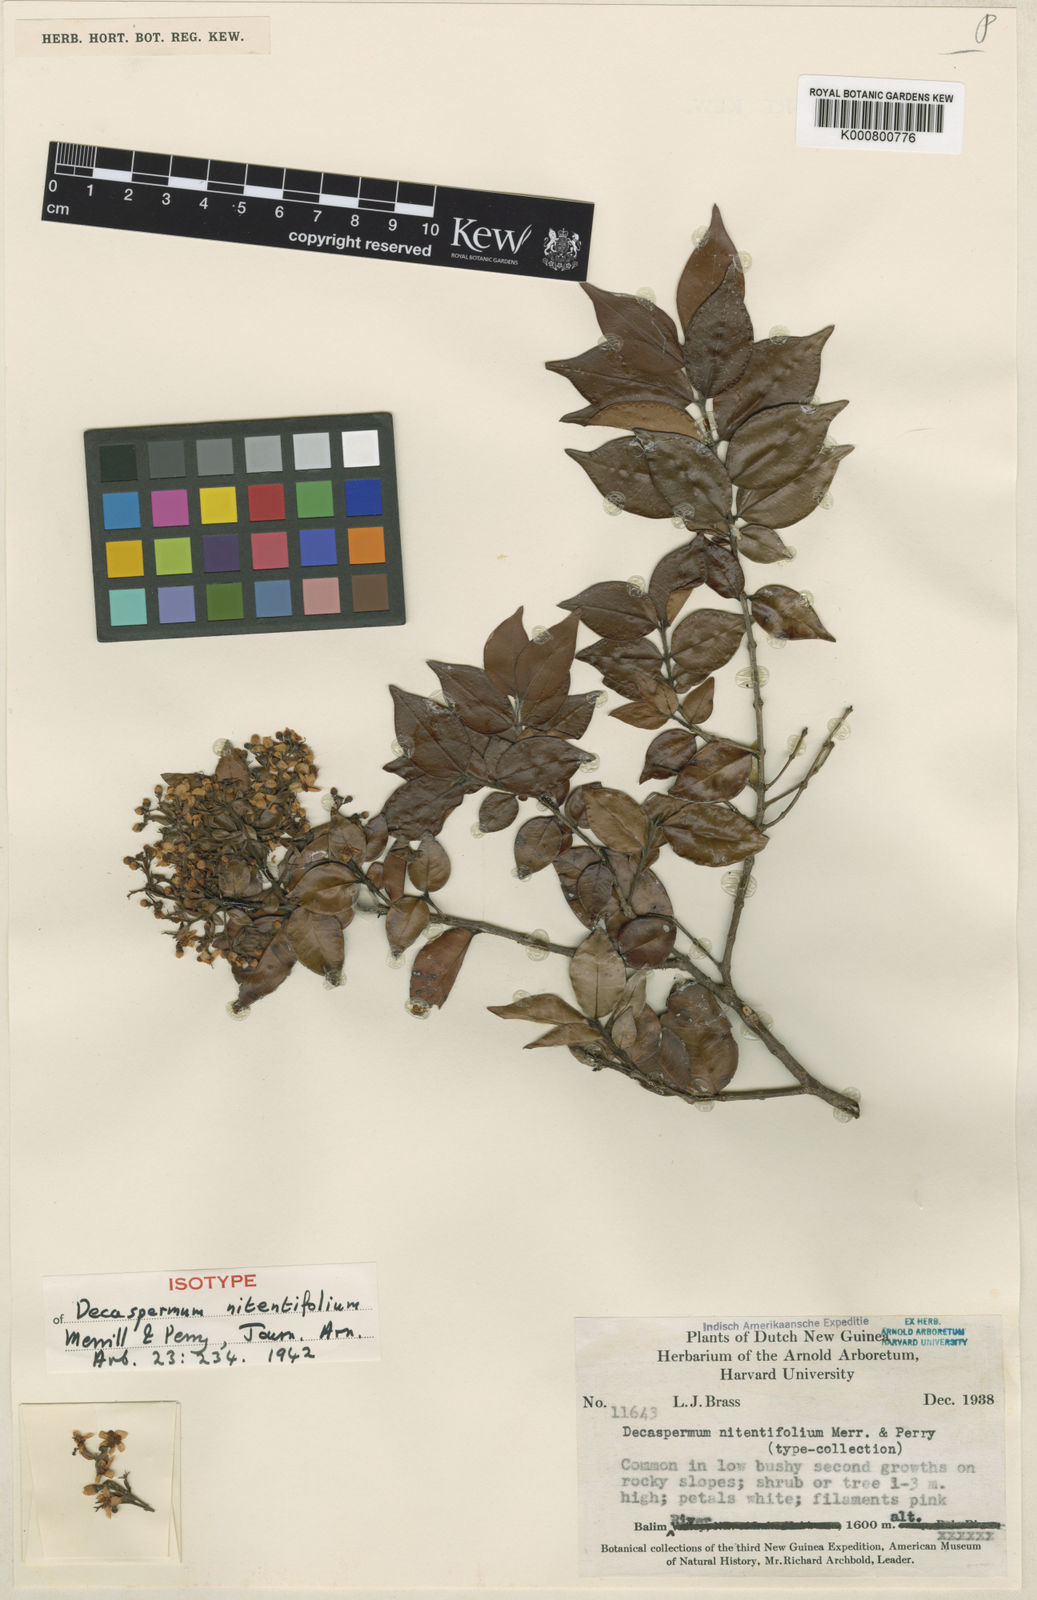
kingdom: Plantae
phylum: Tracheophyta
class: Magnoliopsida
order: Myrtales
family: Myrtaceae
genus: Decaspermum
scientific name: Decaspermum nitentifolium
